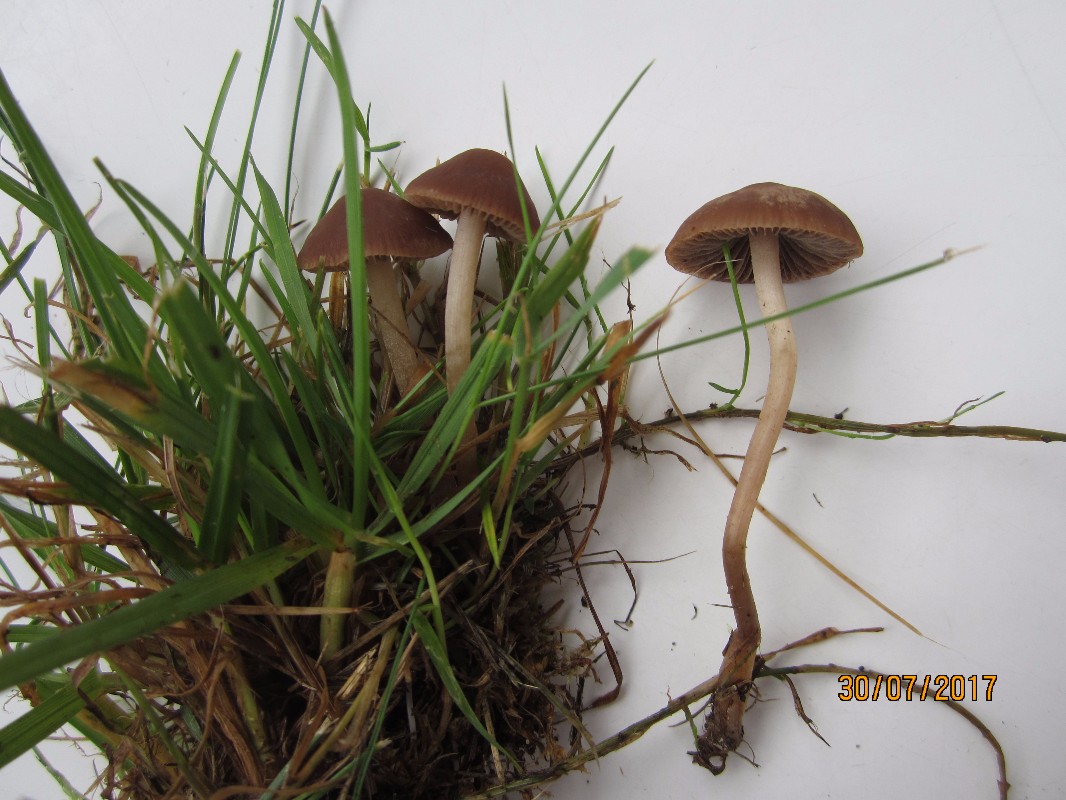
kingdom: Fungi
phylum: Basidiomycota
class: Agaricomycetes
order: Agaricales
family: Bolbitiaceae
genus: Panaeolina
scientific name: Panaeolina foenisecii
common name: høslætsvamp
